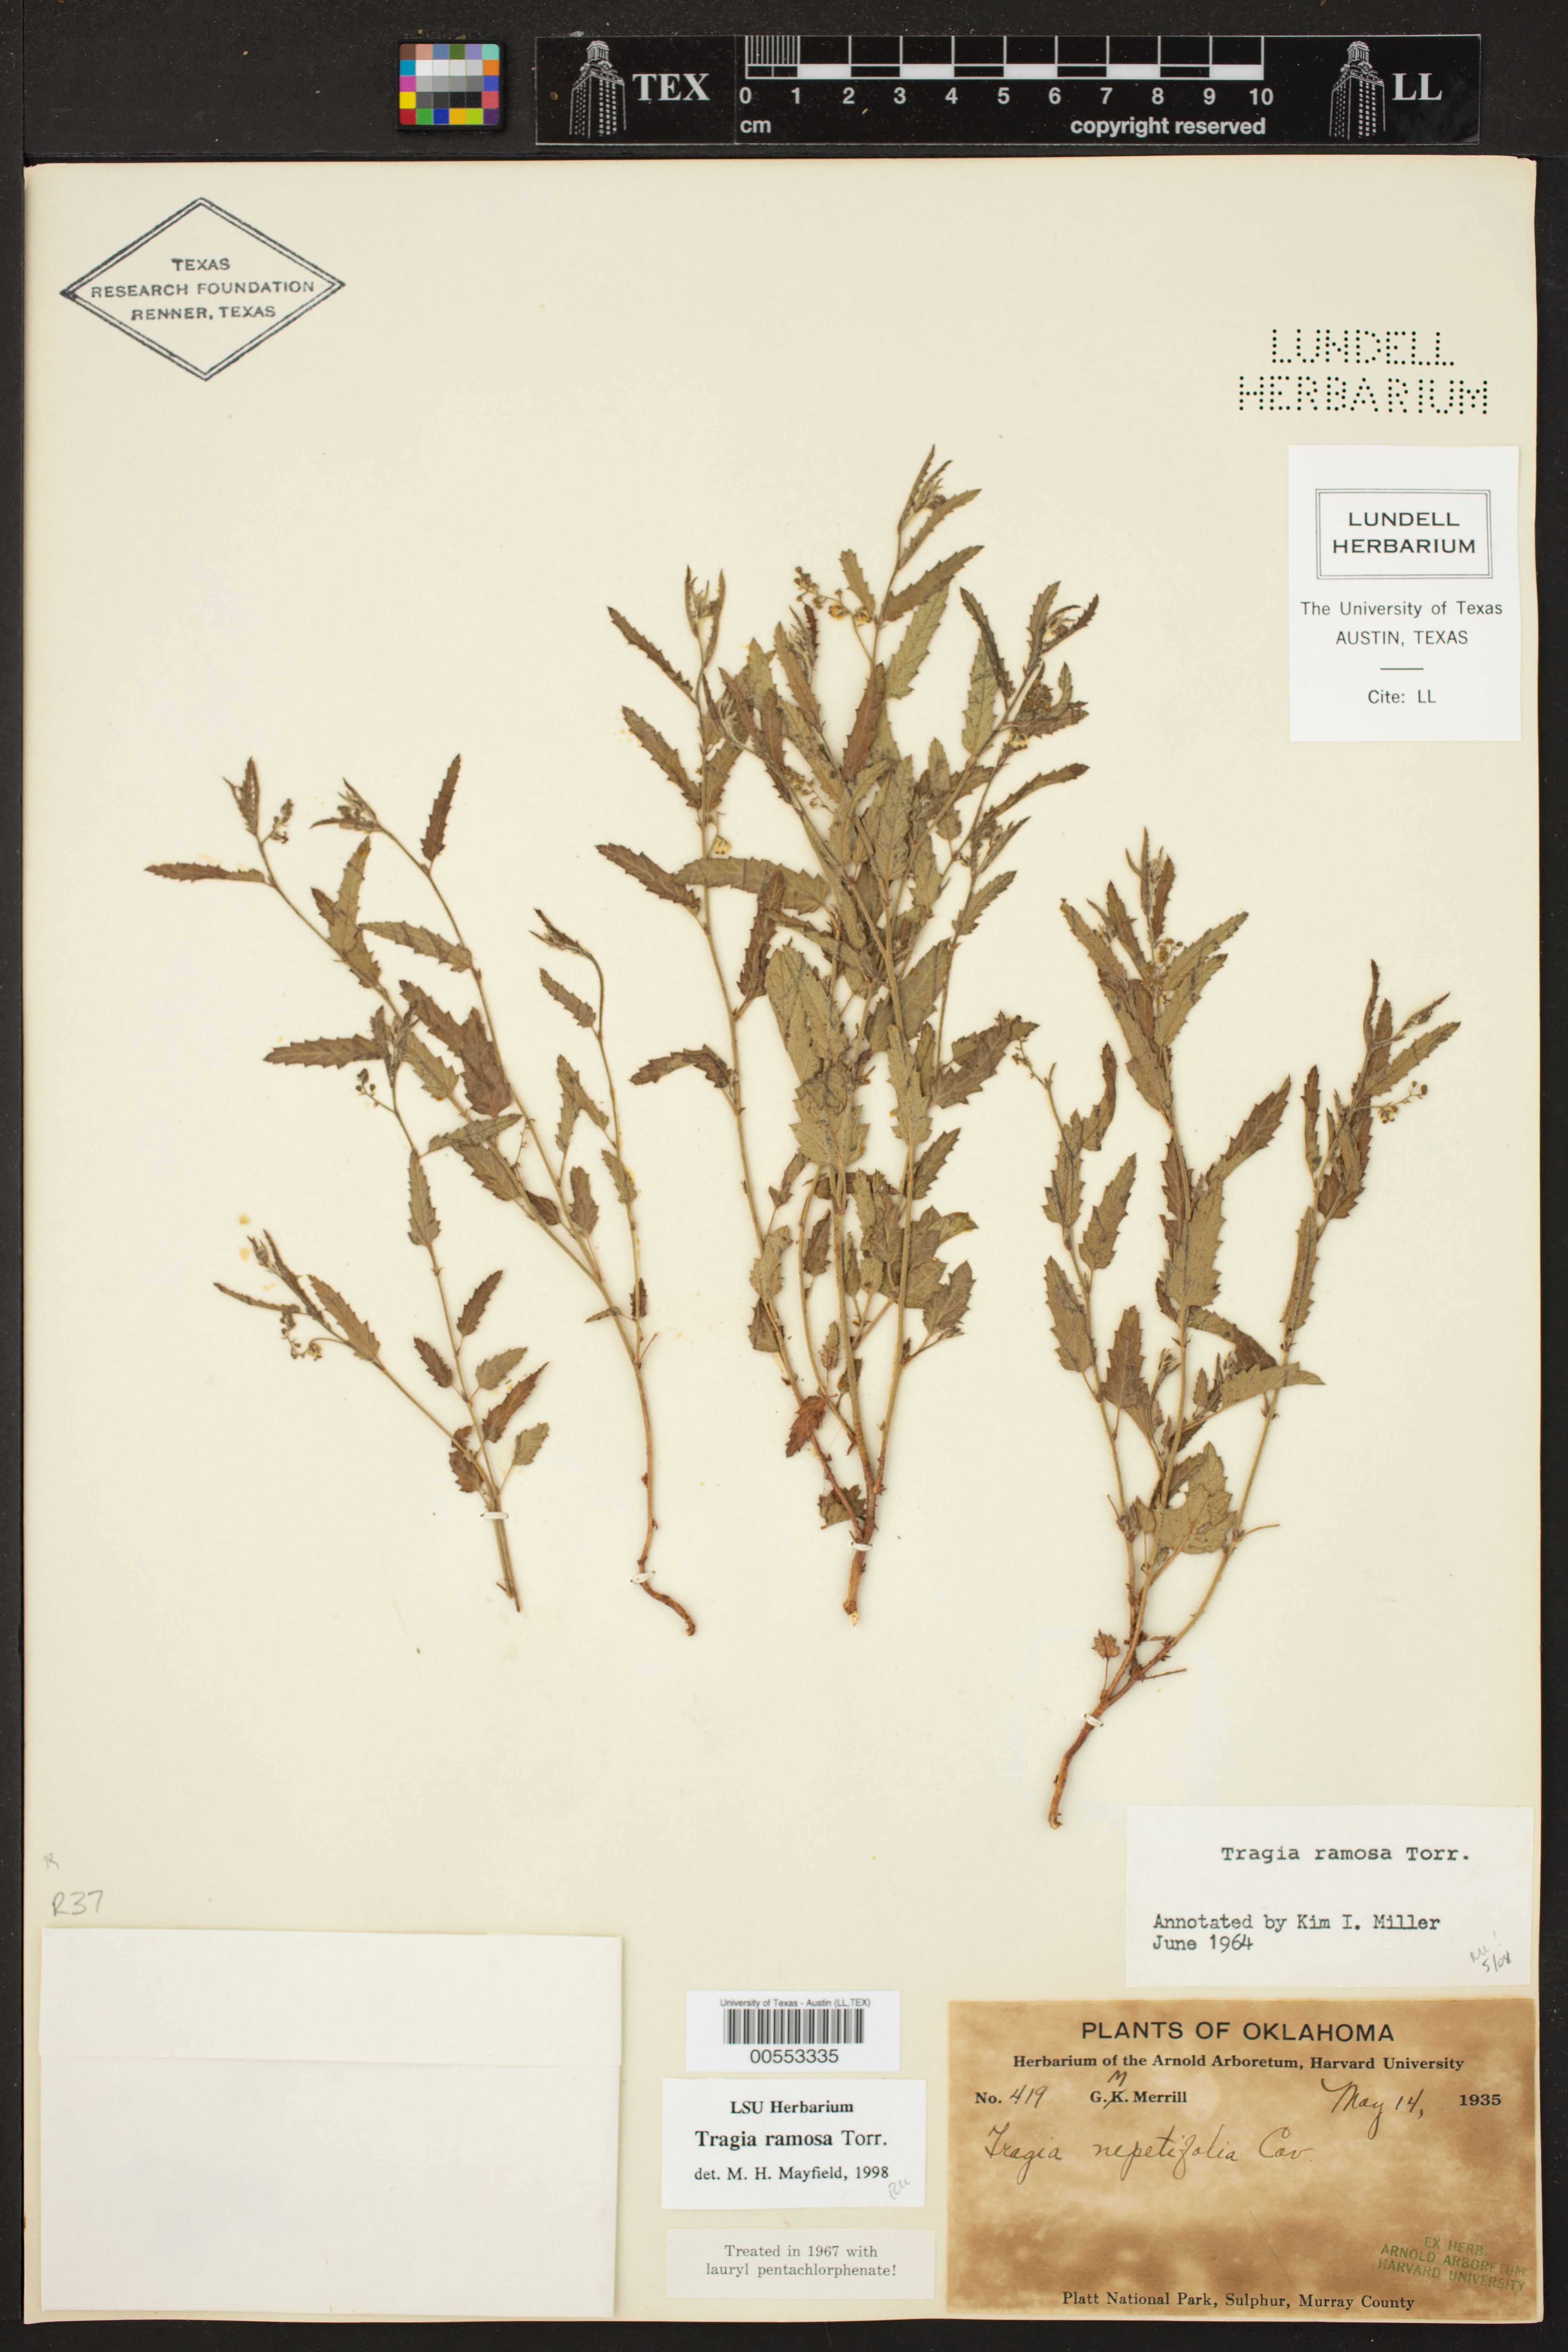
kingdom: Plantae
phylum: Tracheophyta
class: Magnoliopsida
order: Malpighiales
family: Euphorbiaceae
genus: Tragia
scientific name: Tragia ramosa
